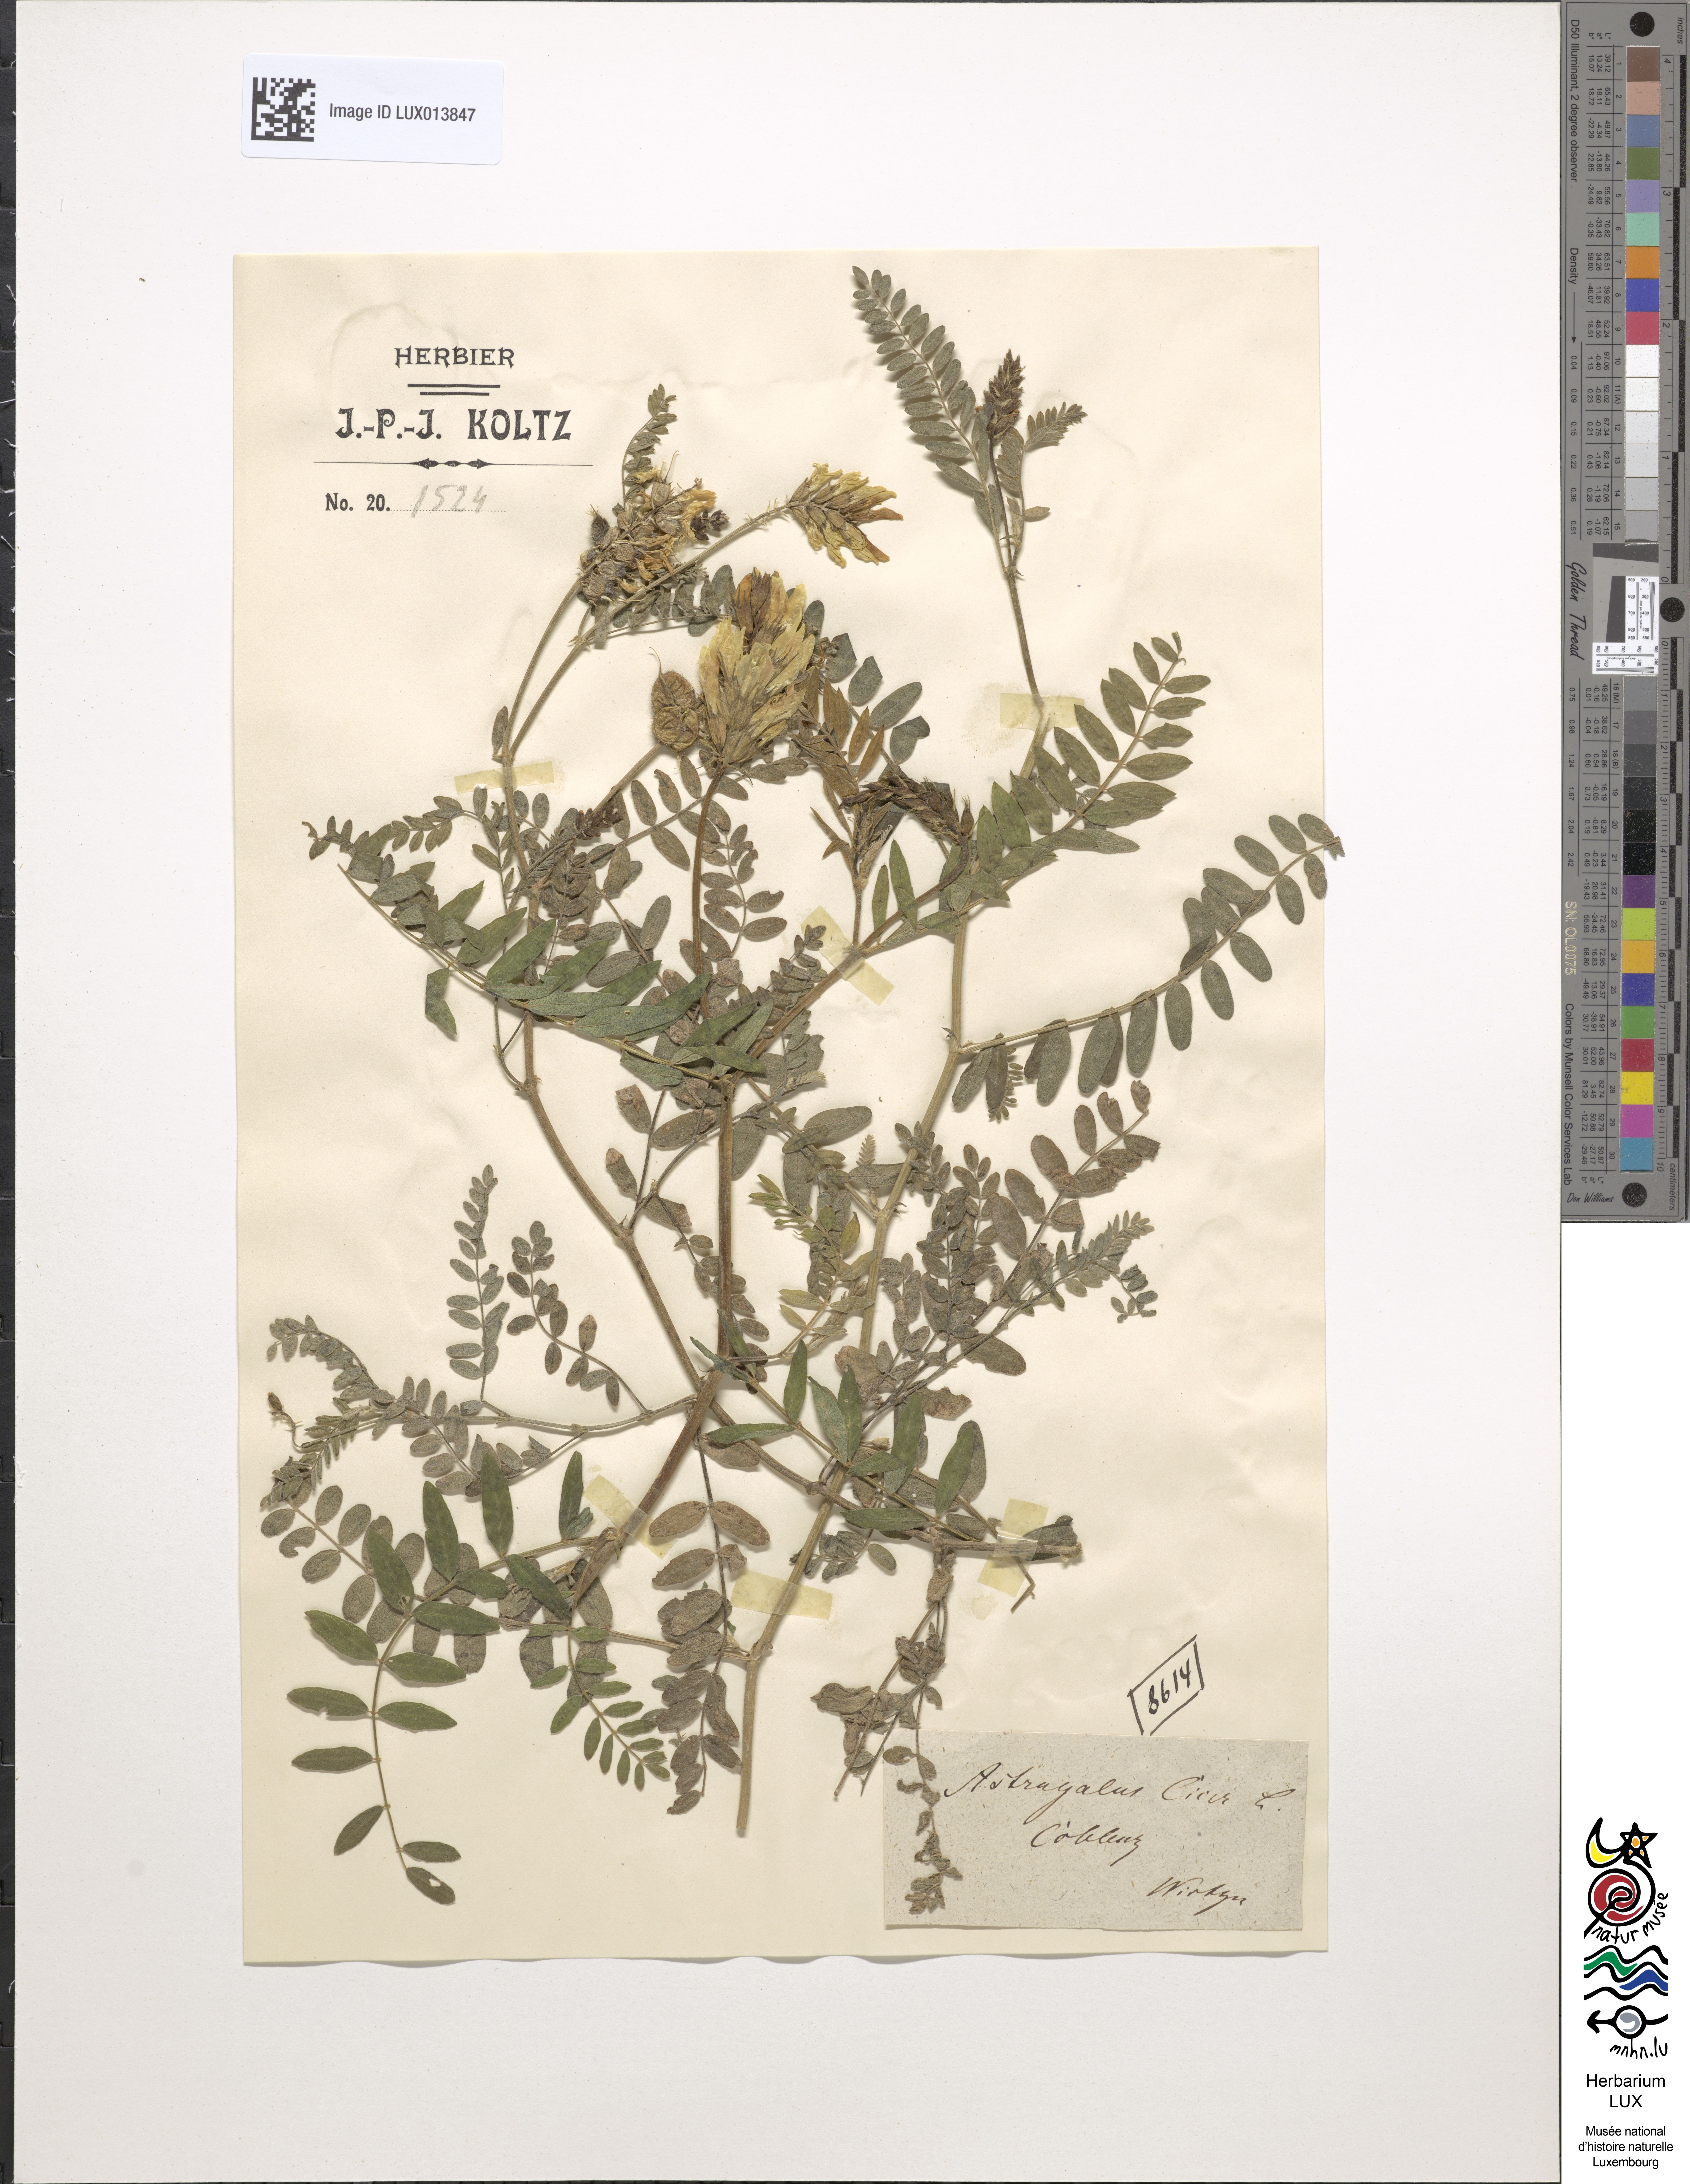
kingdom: Plantae
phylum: Tracheophyta
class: Magnoliopsida
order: Fabales
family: Fabaceae
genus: Astragalus
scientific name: Astragalus cicer
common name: Chick-pea milk-vetch
